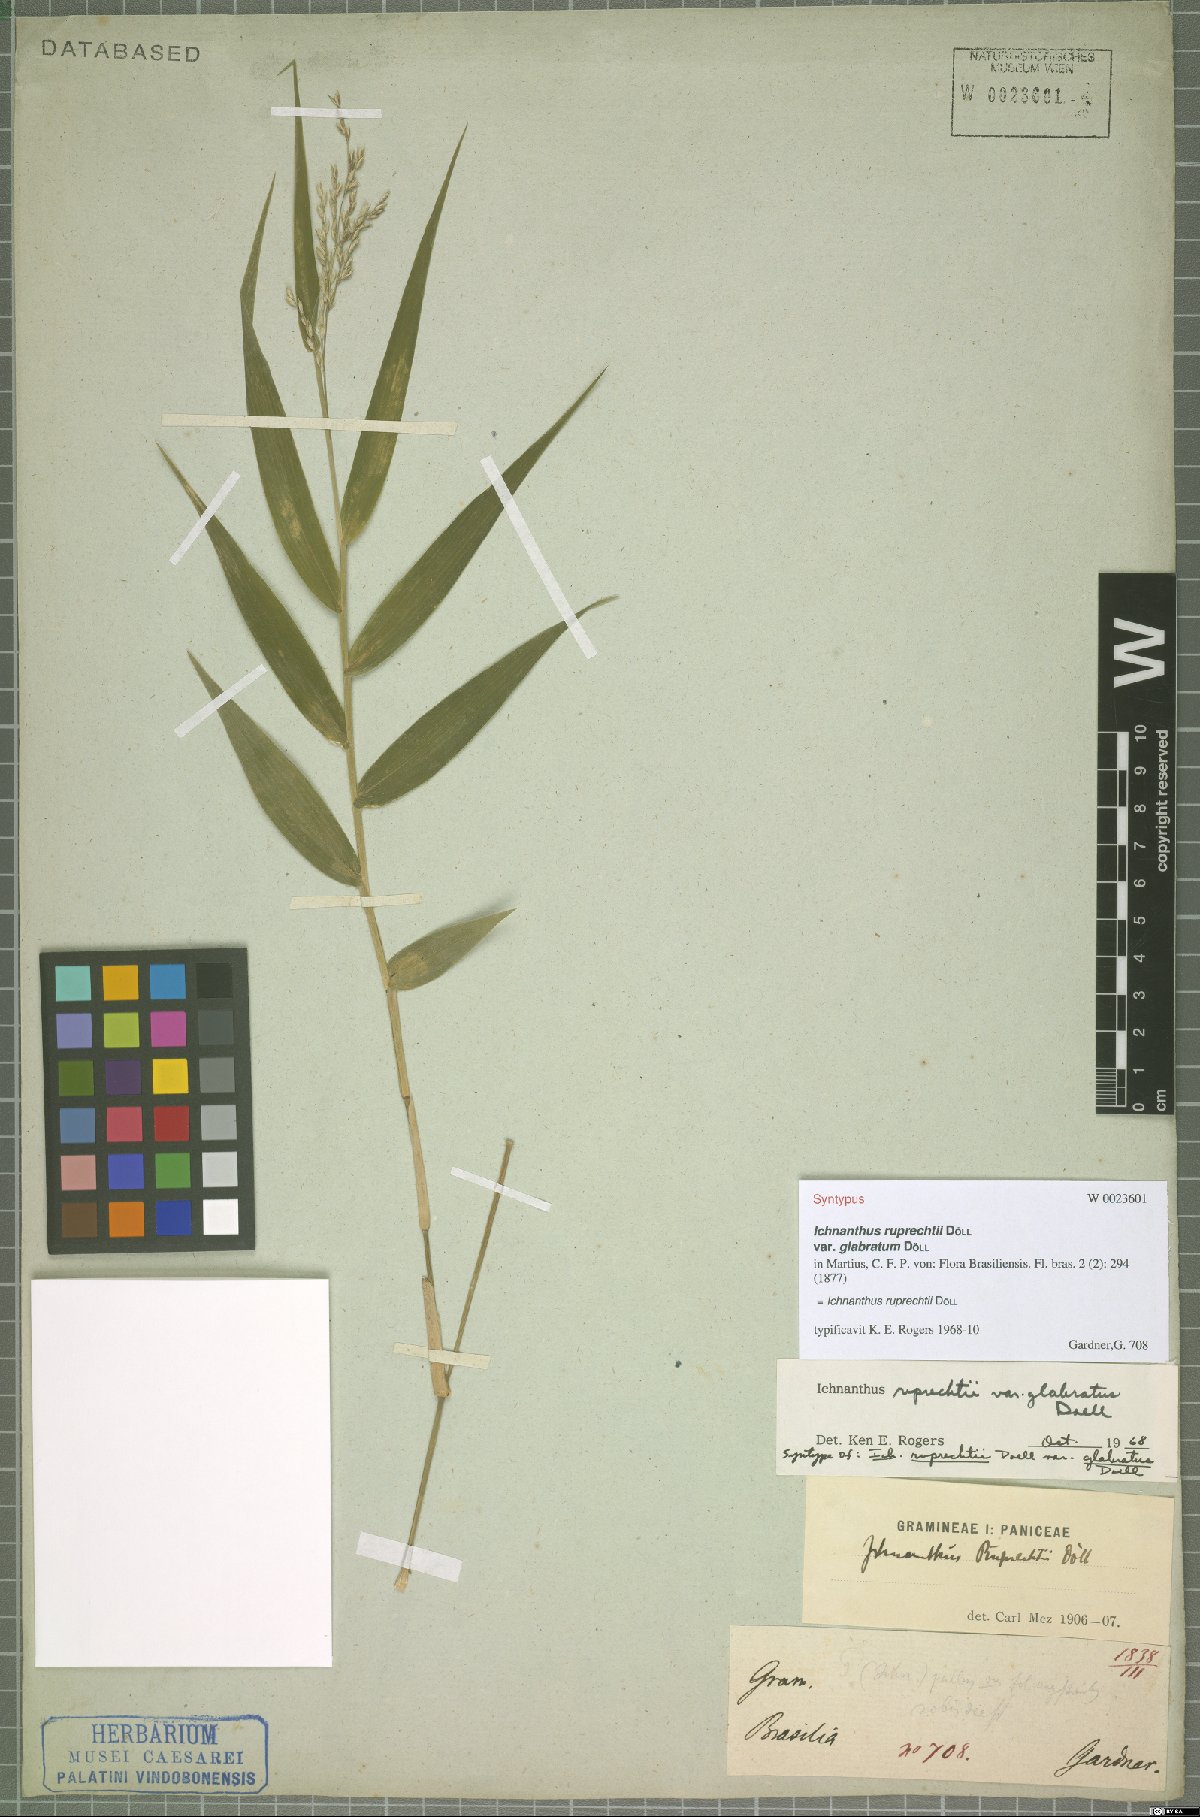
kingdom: Plantae
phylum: Tracheophyta
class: Liliopsida
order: Poales
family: Poaceae
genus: Ichnanthus
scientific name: Ichnanthus ruprechtii
